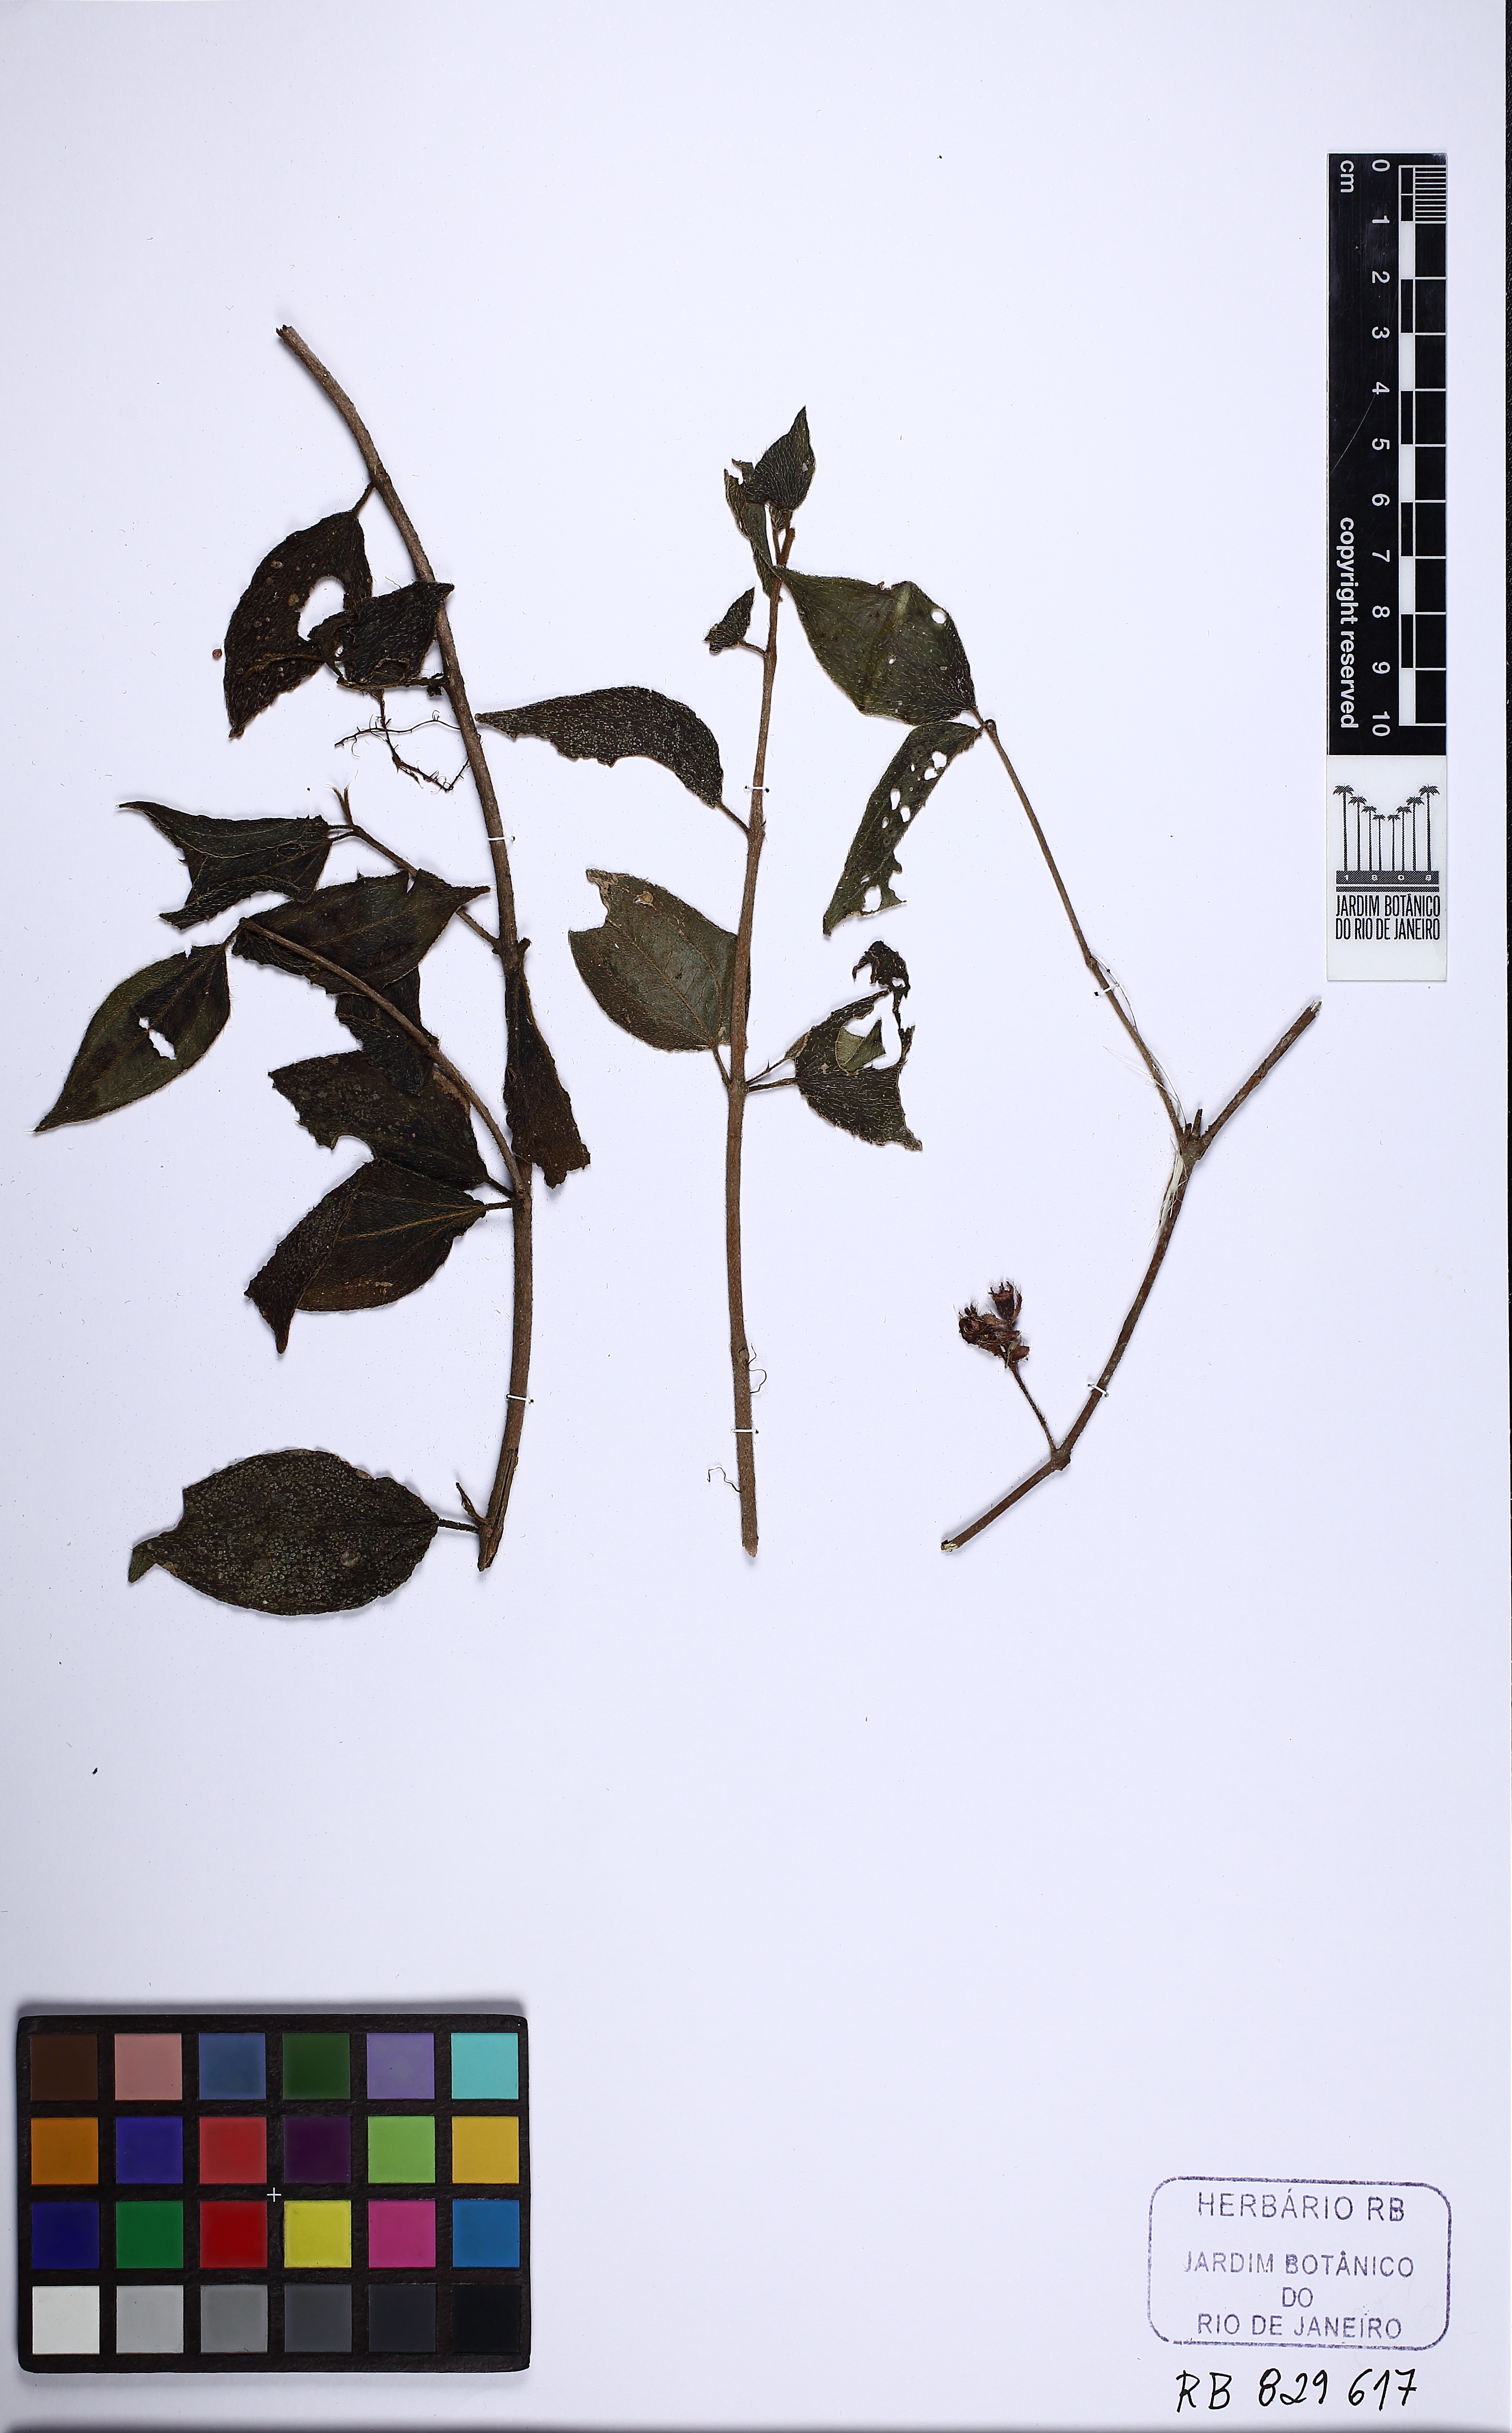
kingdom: Plantae
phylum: Tracheophyta
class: Magnoliopsida
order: Myrtales
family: Melastomataceae
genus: Miconia
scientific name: Miconia blepharodes
